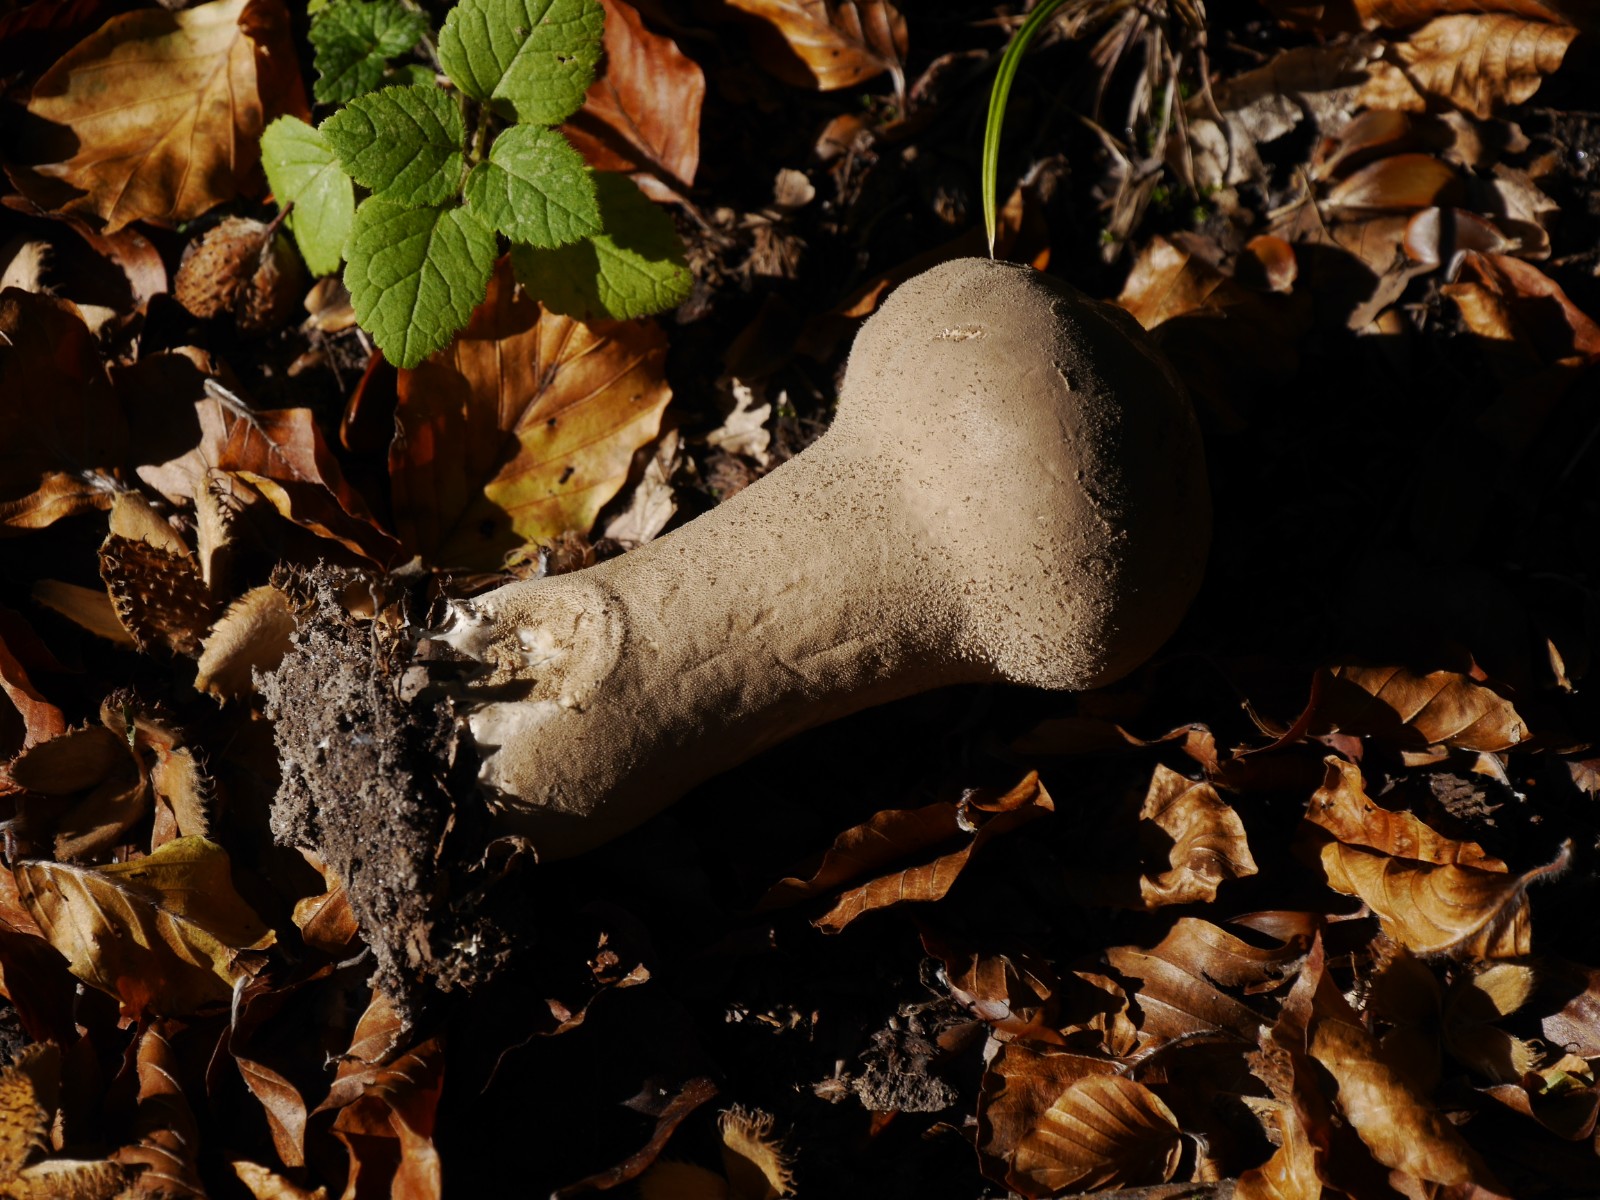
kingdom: Fungi
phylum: Basidiomycota
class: Agaricomycetes
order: Agaricales
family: Lycoperdaceae
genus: Lycoperdon
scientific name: Lycoperdon excipuliforme
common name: højstokket støvbold
